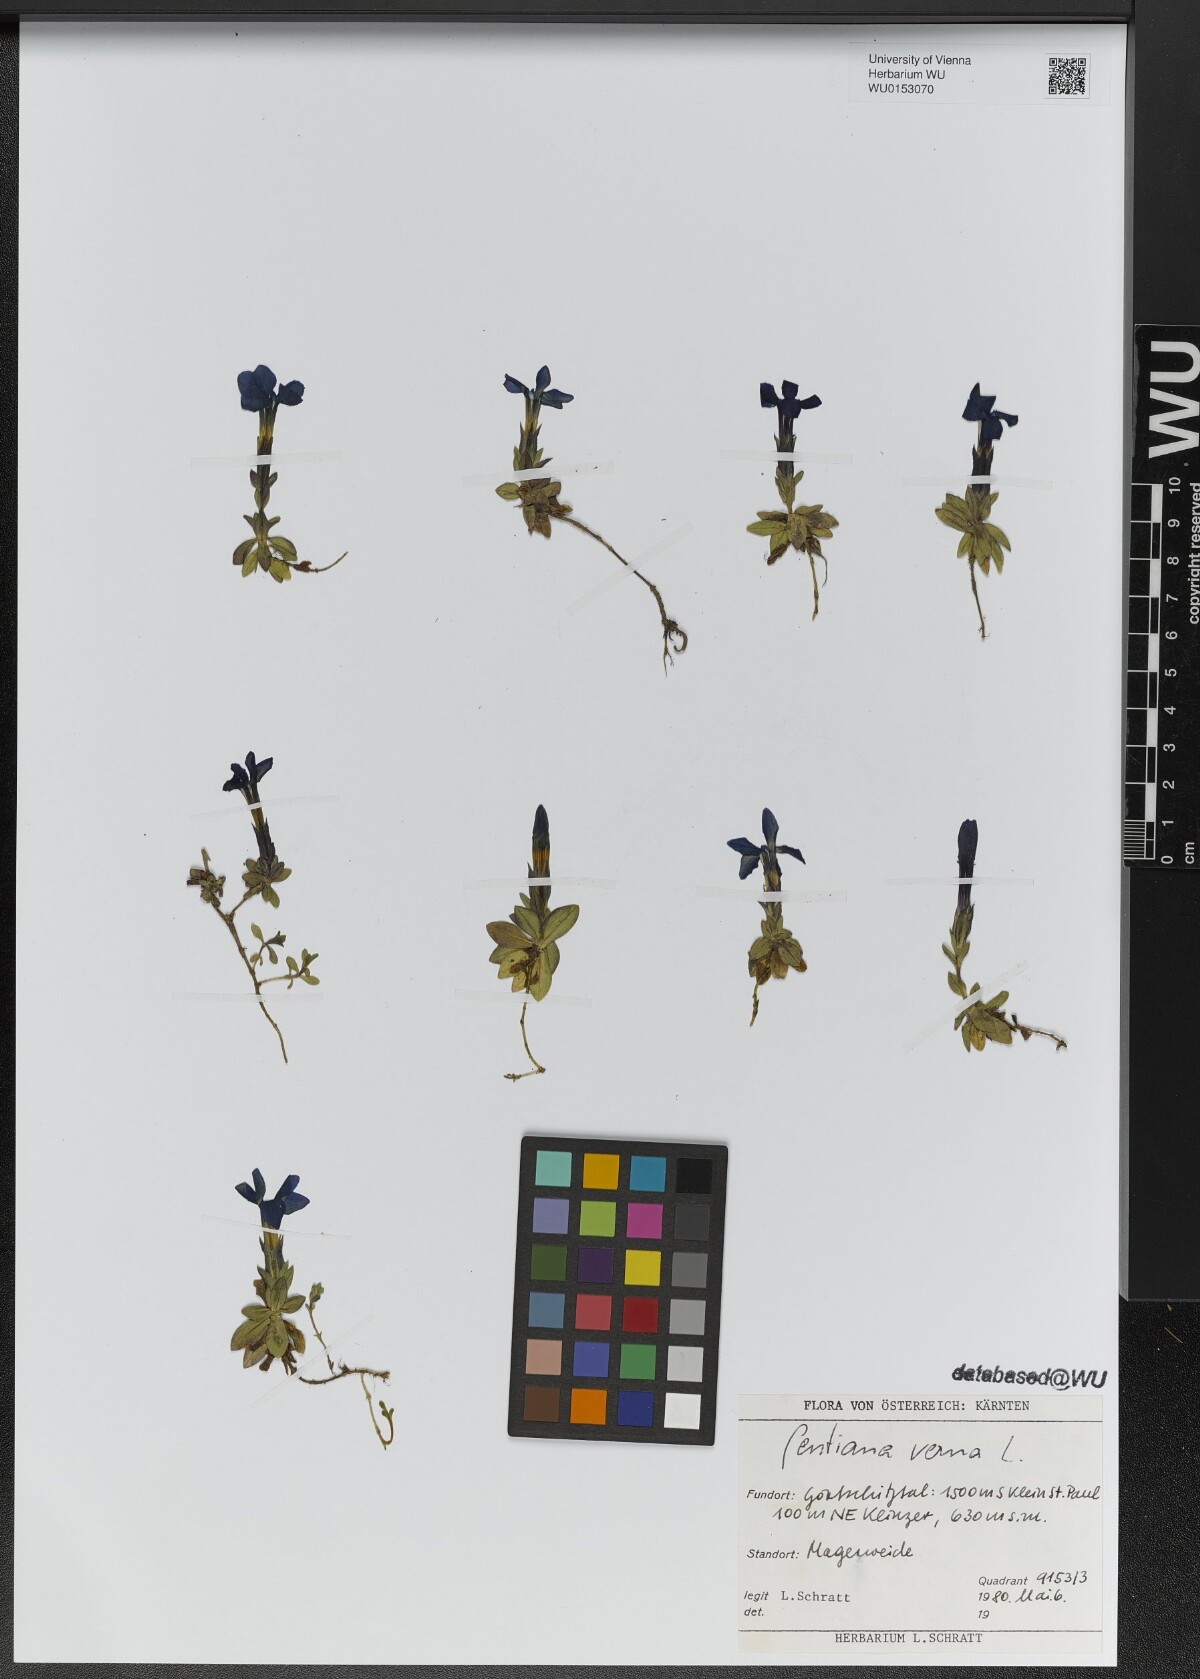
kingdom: Plantae
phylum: Tracheophyta
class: Magnoliopsida
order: Gentianales
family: Gentianaceae
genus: Gentiana
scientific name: Gentiana verna
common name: Spring gentian
